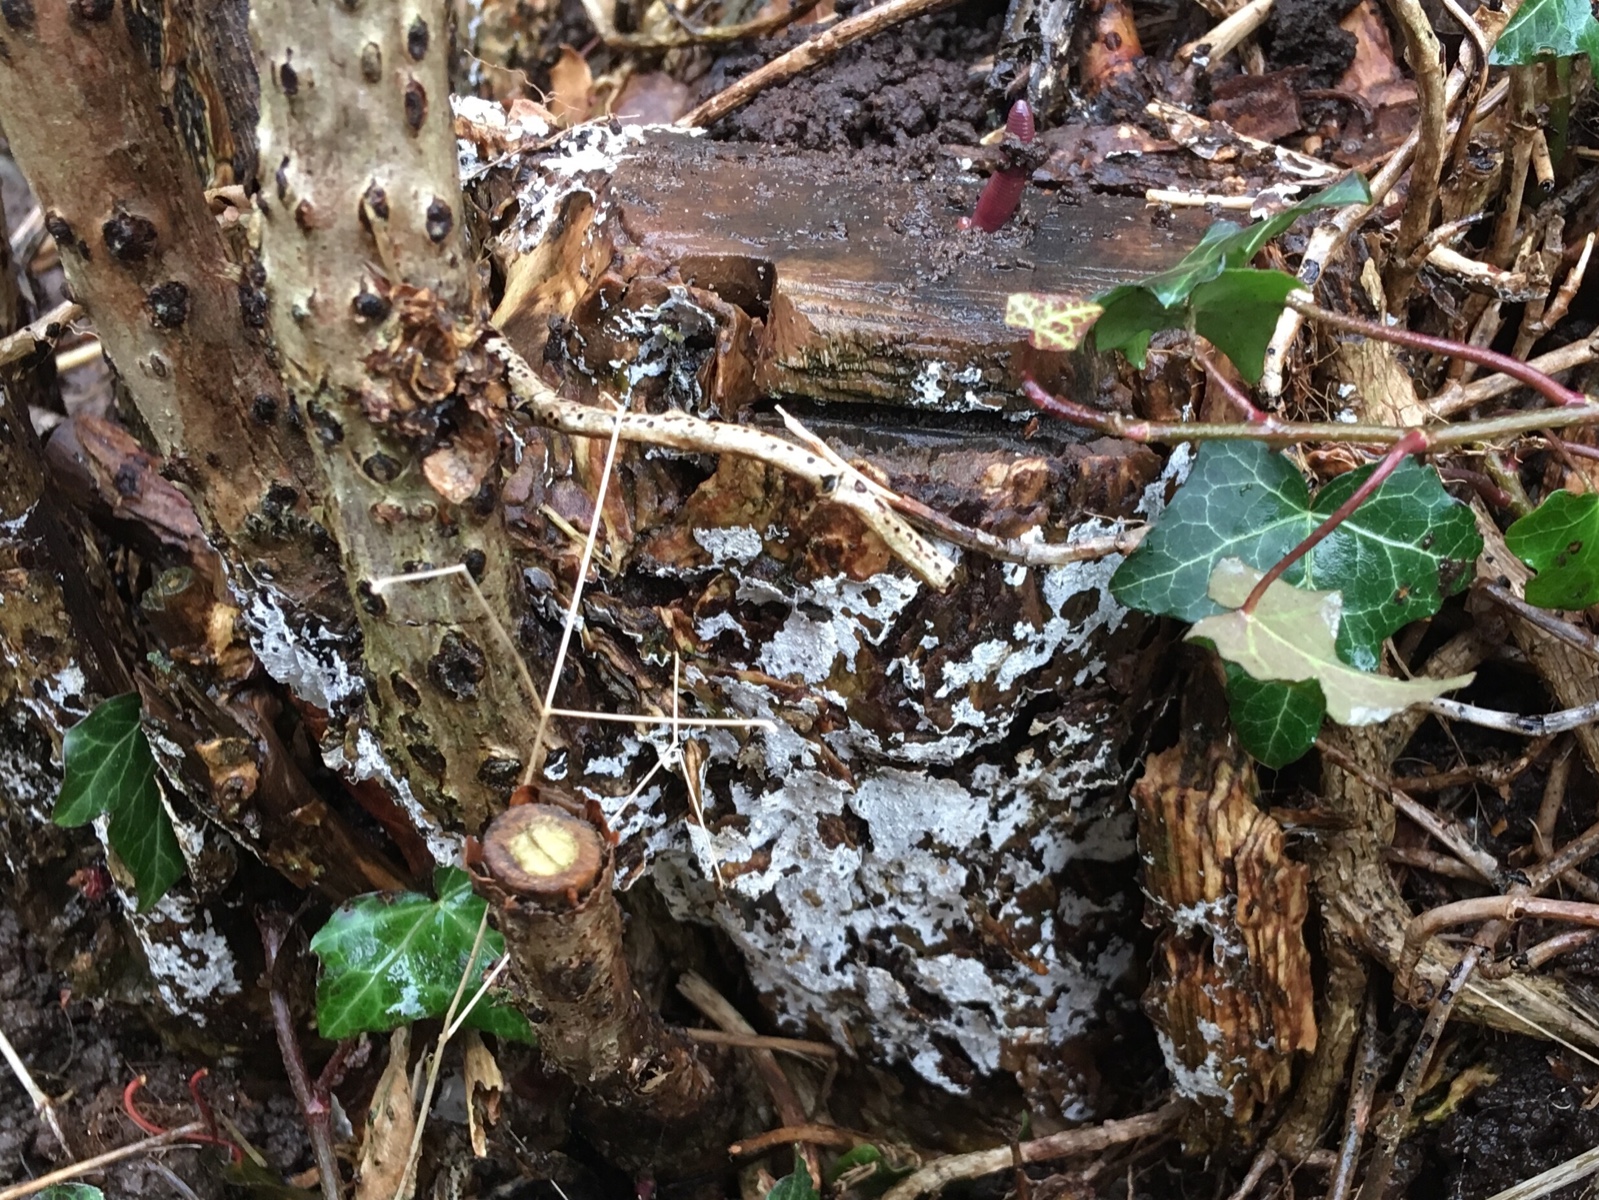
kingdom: Fungi
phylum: Basidiomycota
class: Agaricomycetes
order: Corticiales
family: Corticiaceae
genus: Lyomyces
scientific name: Lyomyces sambuci
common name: almindelig hyldehinde
